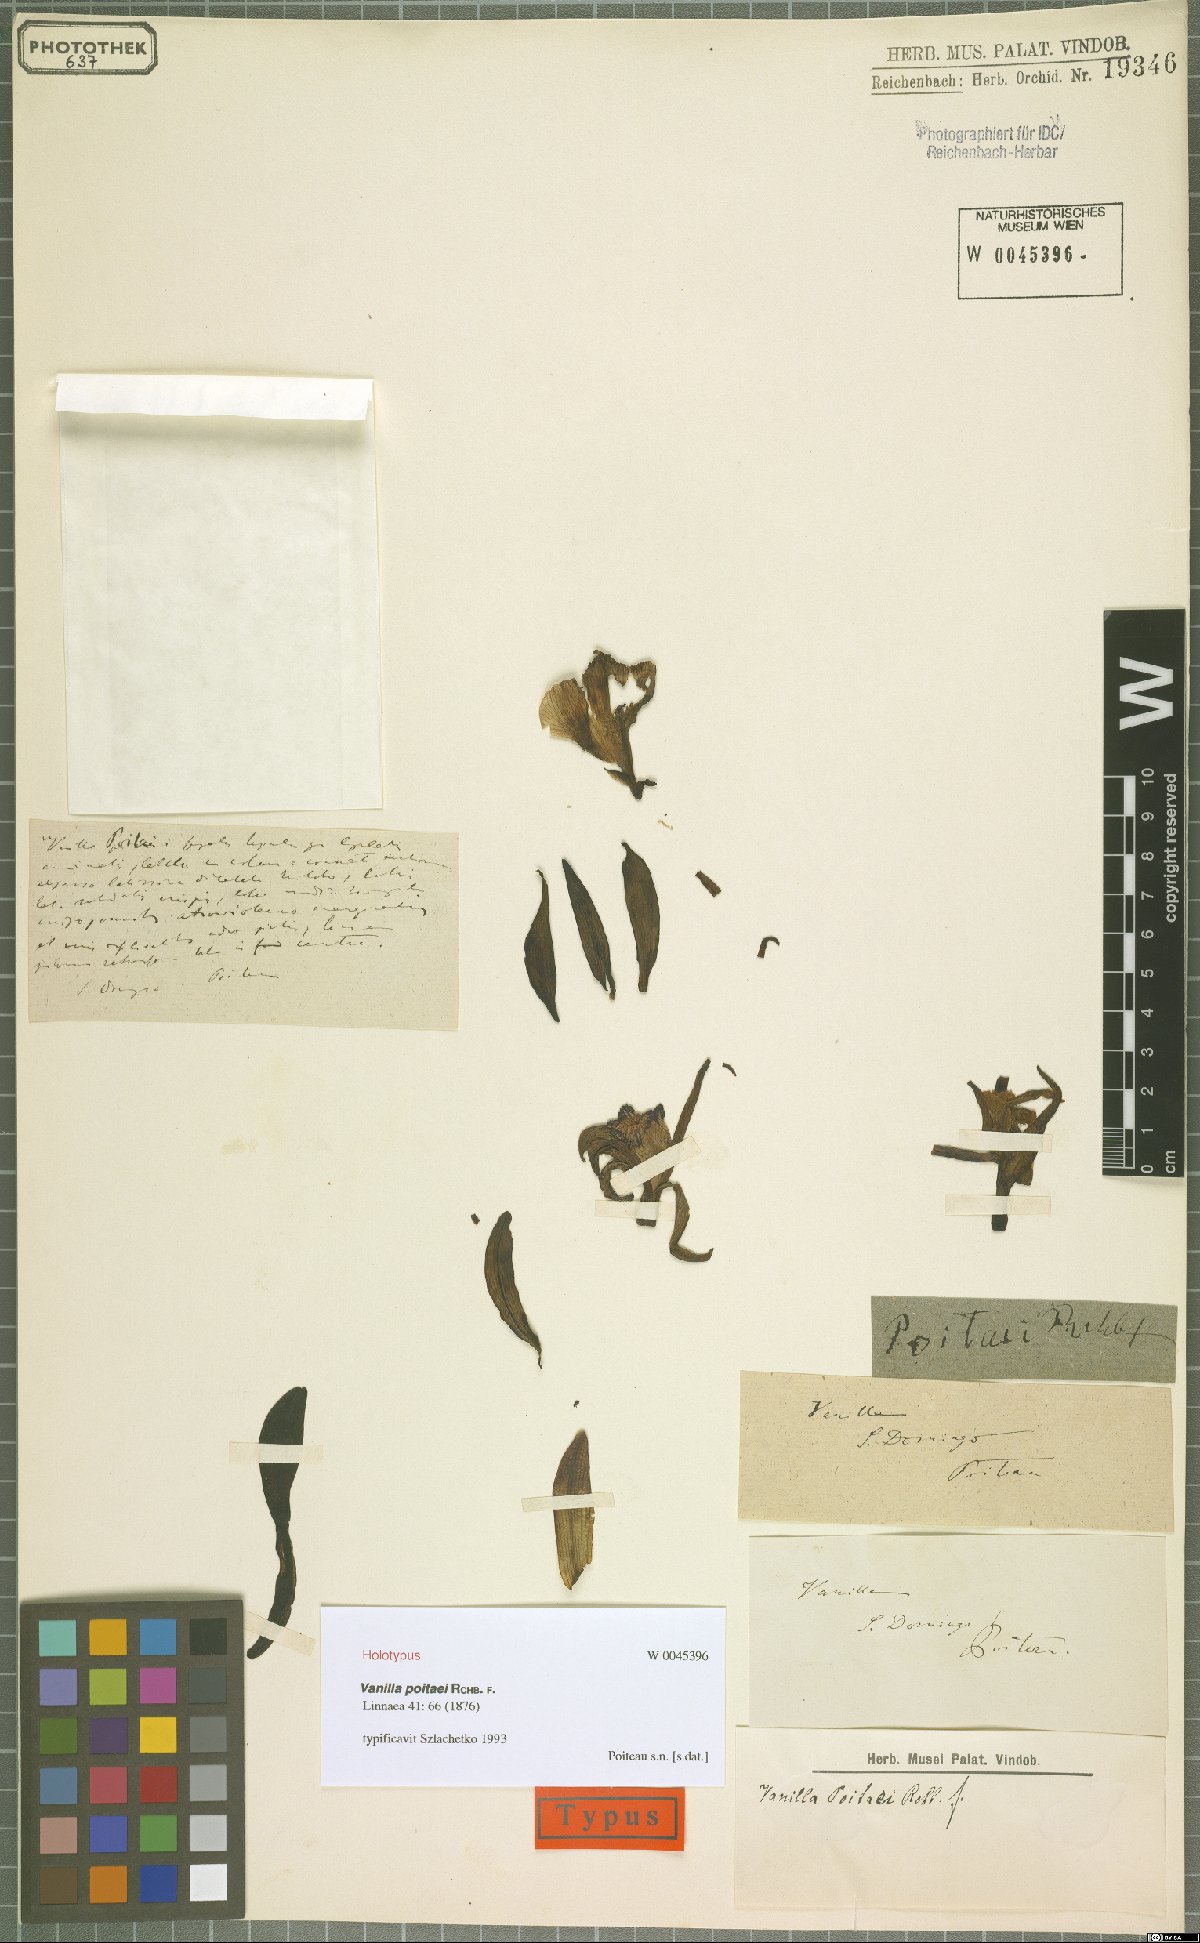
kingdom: Plantae
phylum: Tracheophyta
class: Liliopsida
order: Asparagales
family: Orchidaceae
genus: Vanilla
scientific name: Vanilla poitaei
